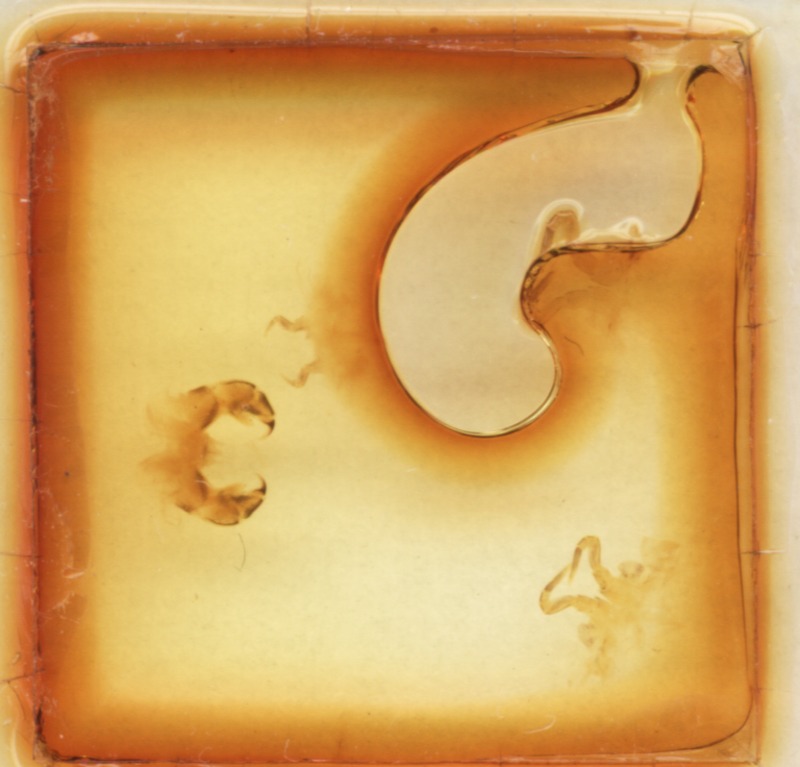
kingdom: Animalia
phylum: Arthropoda
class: Diplopoda
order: Glomerida
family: Glomeridae
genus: Onychoglomeris
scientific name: Onychoglomeris castanea
